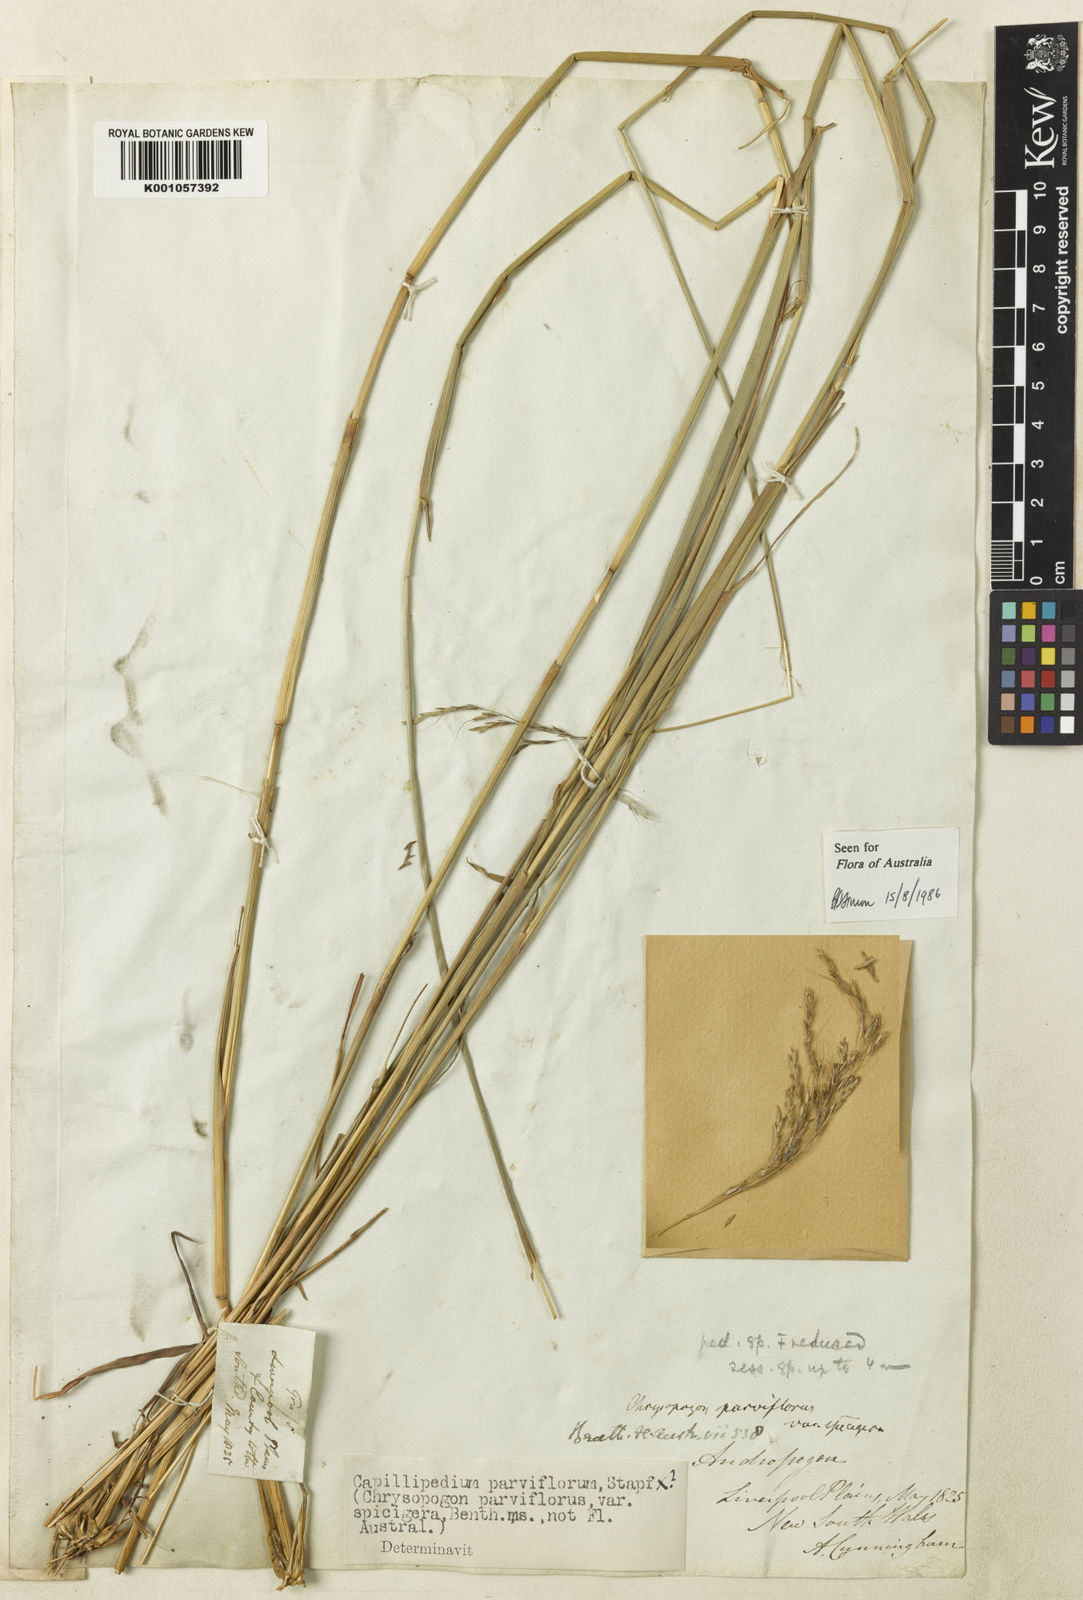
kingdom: Plantae
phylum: Tracheophyta
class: Liliopsida
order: Poales
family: Poaceae
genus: Capillipedium
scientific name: Capillipedium spicigerum
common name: Scented-top grass
